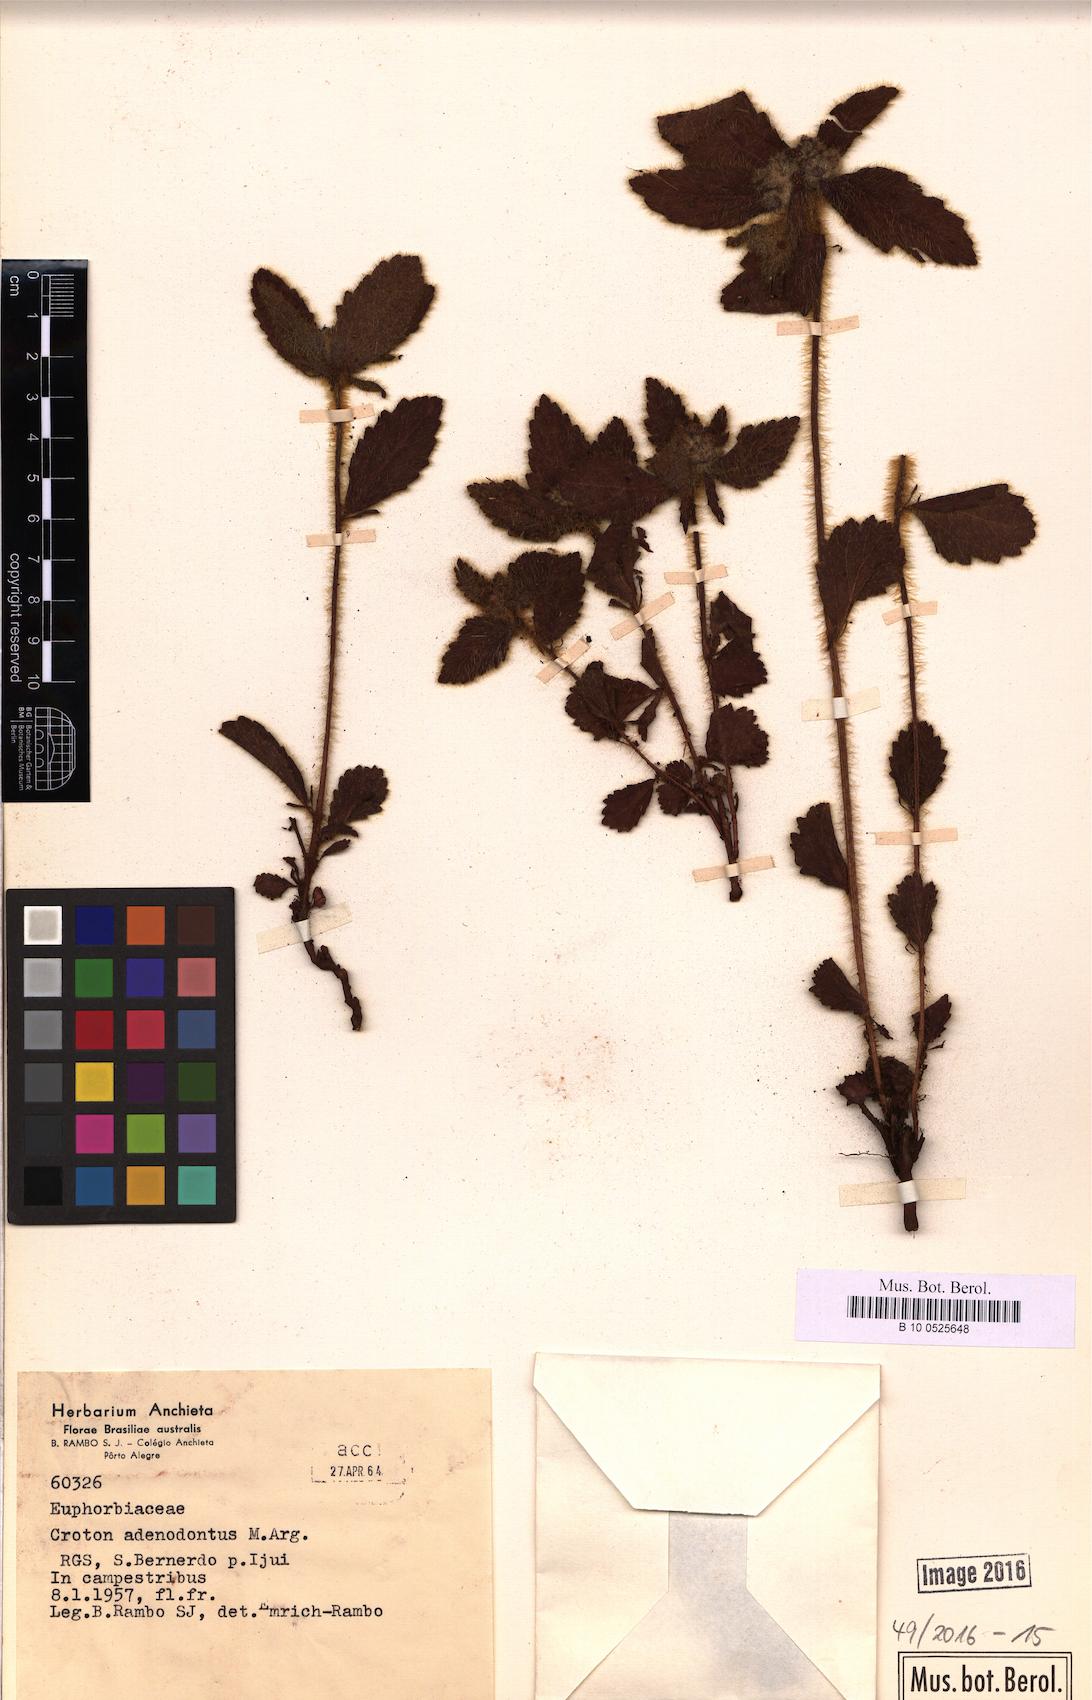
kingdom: Plantae
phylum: Tracheophyta
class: Magnoliopsida
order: Malpighiales
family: Euphorbiaceae
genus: Croton
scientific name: Croton adenodontus
